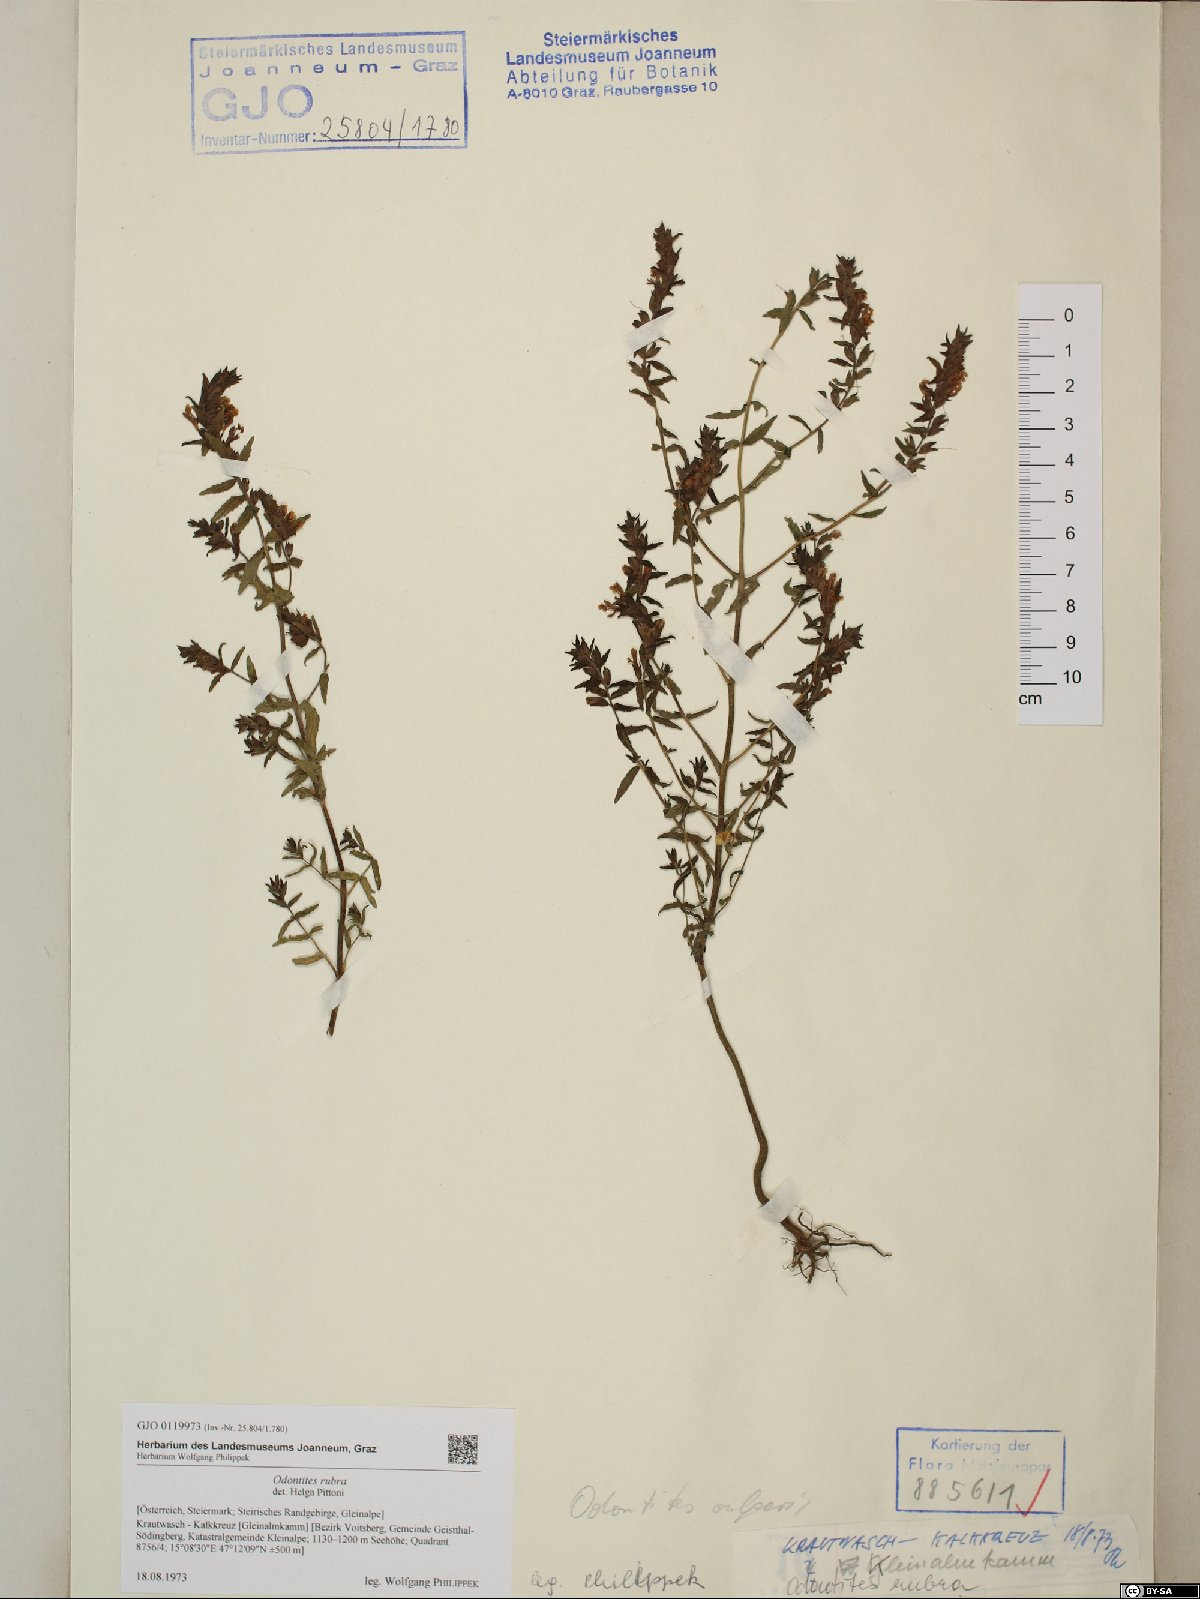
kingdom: Plantae
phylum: Tracheophyta
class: Magnoliopsida
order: Lamiales
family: Orobanchaceae
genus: Odontites
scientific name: Odontites vulgaris
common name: Broomrape
